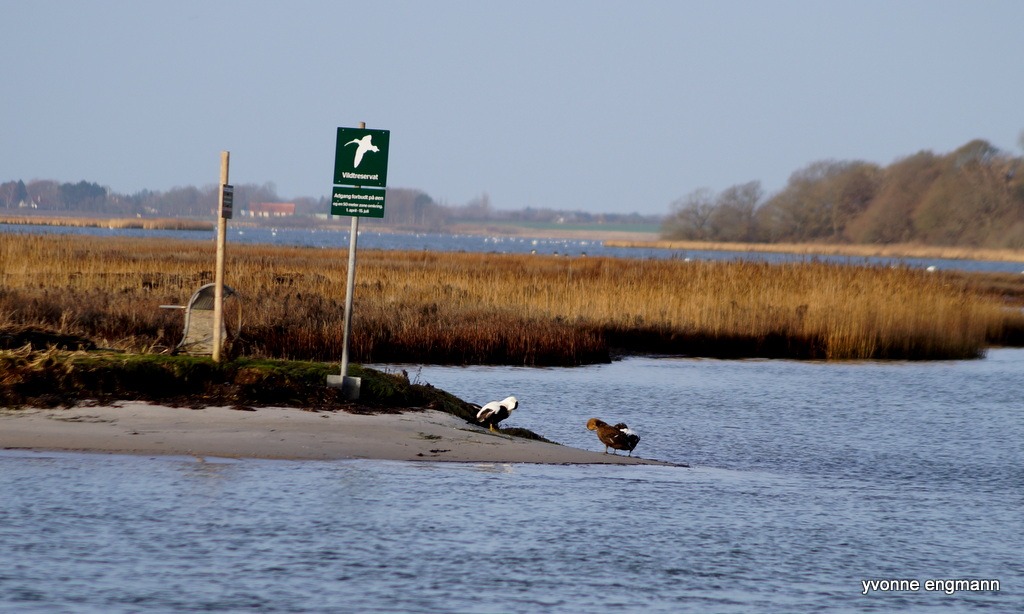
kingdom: Animalia
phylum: Chordata
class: Aves
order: Anseriformes
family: Anatidae
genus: Somateria
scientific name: Somateria mollissima
